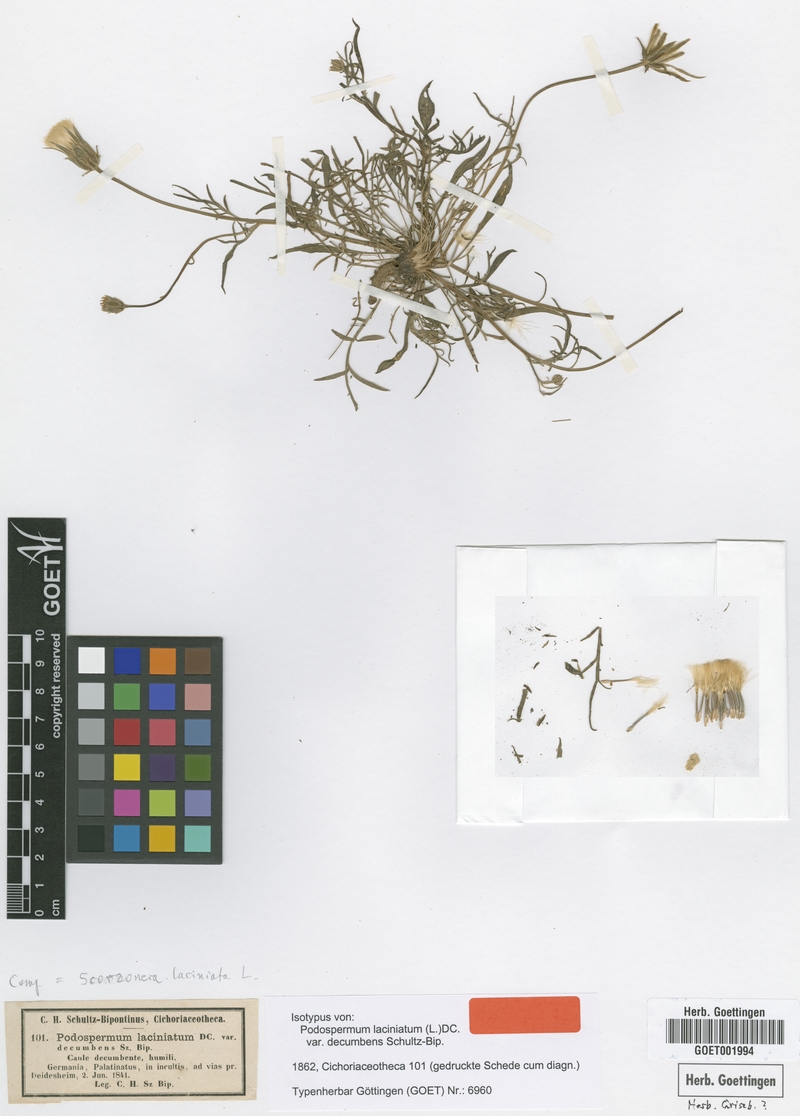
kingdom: Plantae
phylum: Tracheophyta
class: Magnoliopsida
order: Asterales
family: Asteraceae
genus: Scorzonera
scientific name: Scorzonera laciniata
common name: Cutleaf vipergrass
